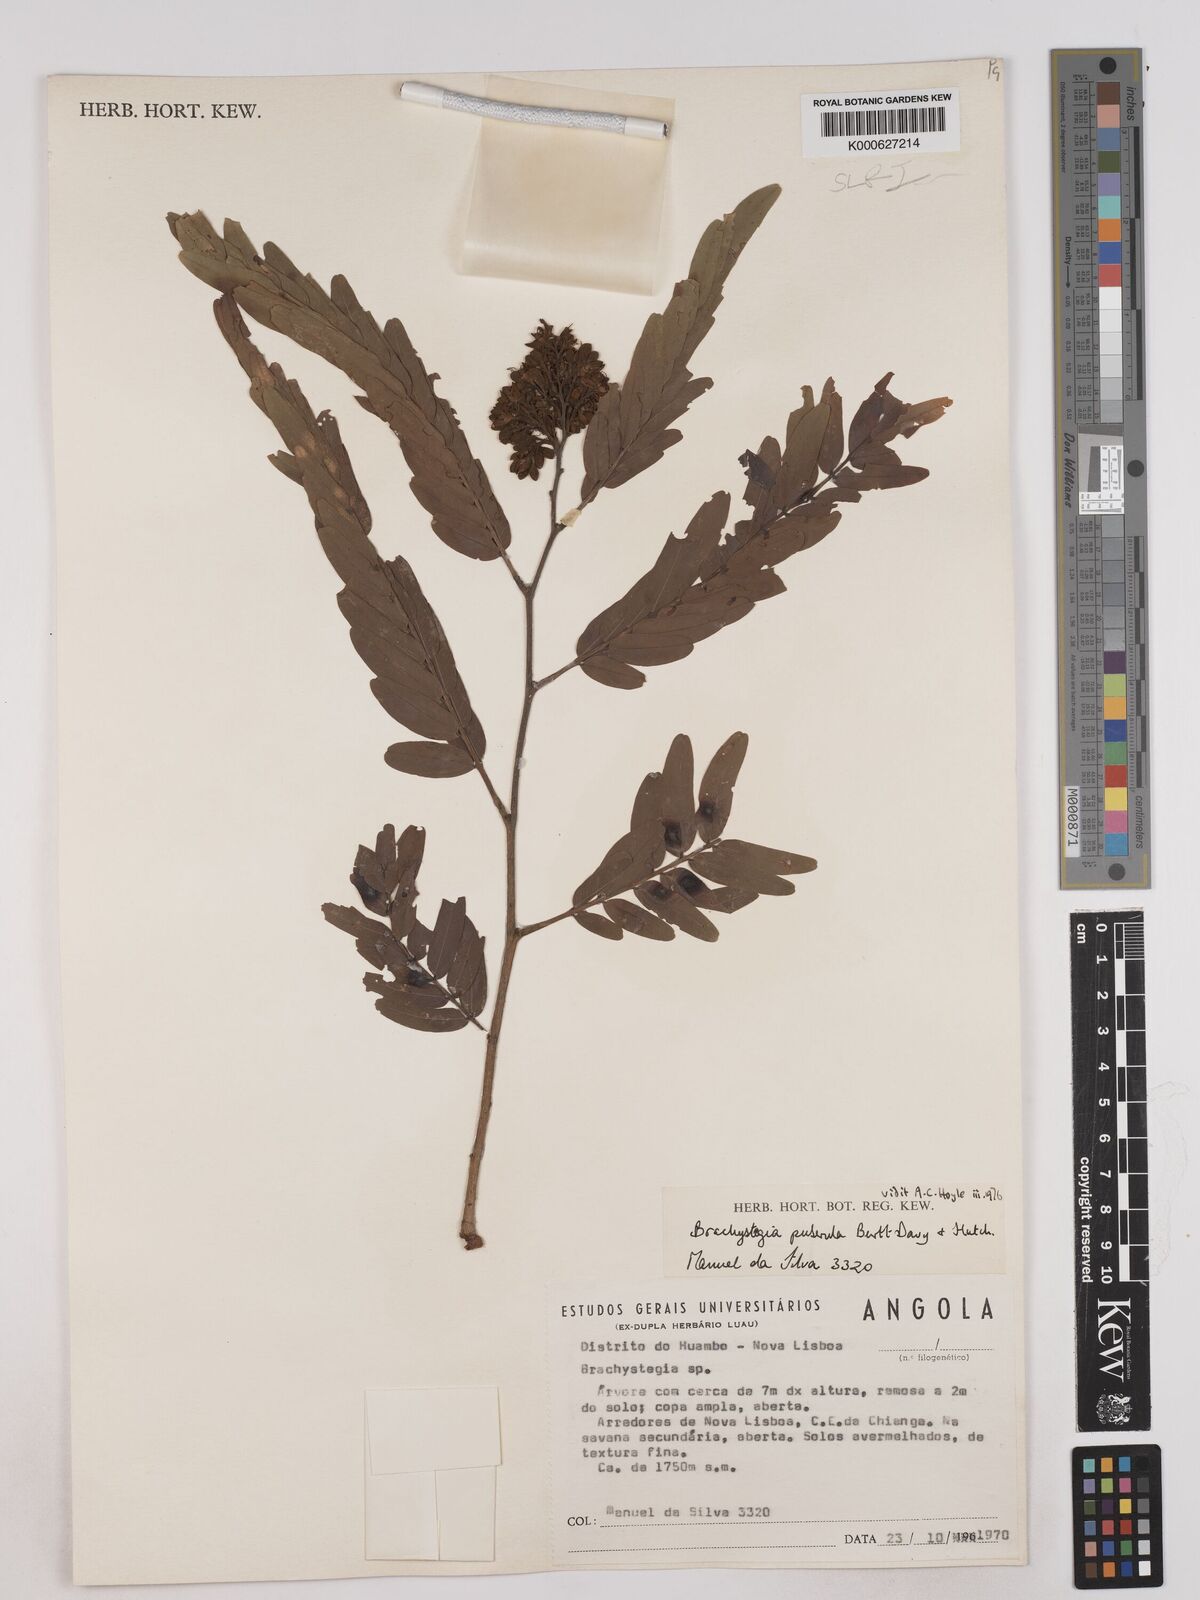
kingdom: Plantae
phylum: Tracheophyta
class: Magnoliopsida
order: Fabales
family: Fabaceae
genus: Brachystegia
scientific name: Brachystegia puberula
